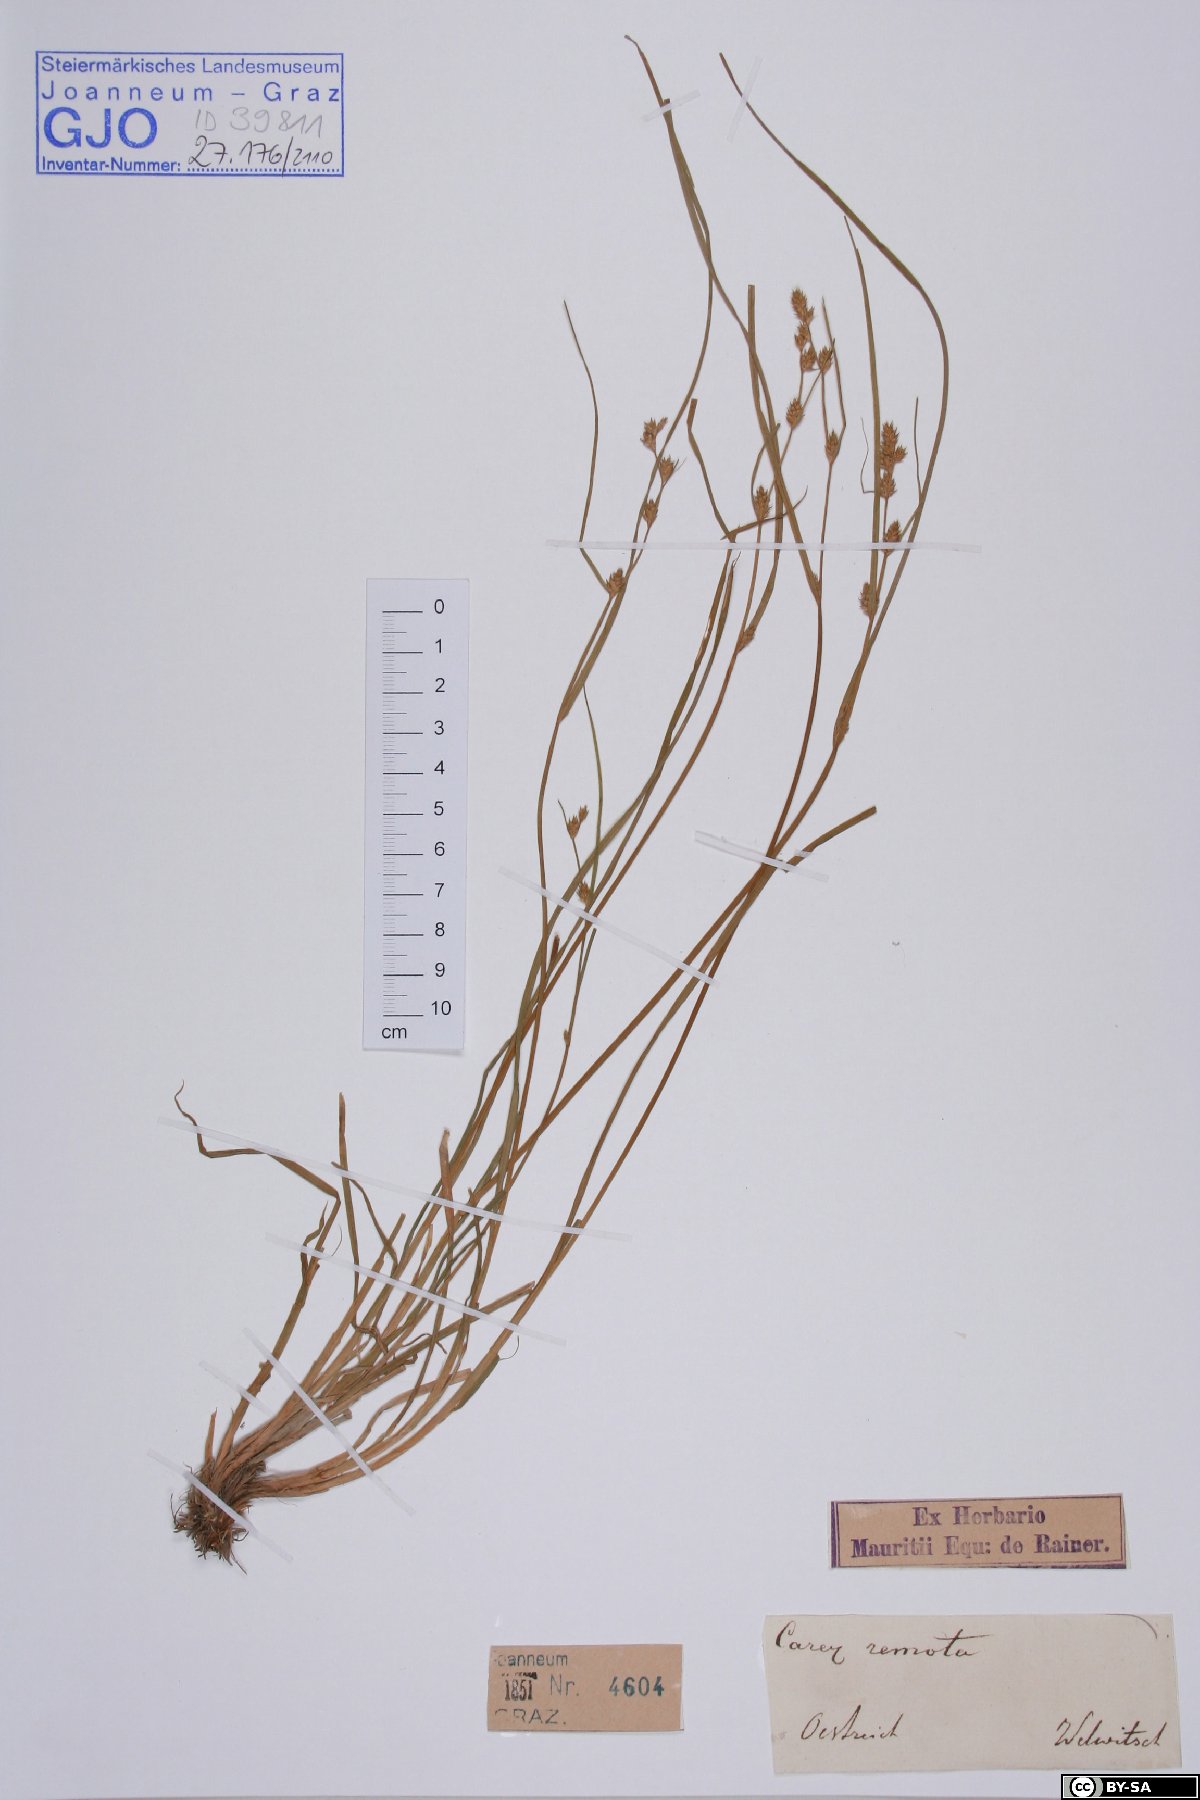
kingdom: Plantae
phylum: Tracheophyta
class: Liliopsida
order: Poales
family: Cyperaceae
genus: Carex
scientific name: Carex remota
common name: Remote sedge
